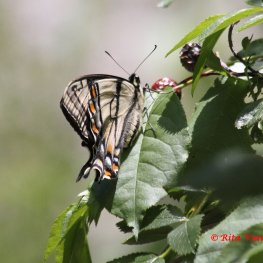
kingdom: Animalia
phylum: Arthropoda
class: Insecta
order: Lepidoptera
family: Papilionidae
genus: Pterourus
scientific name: Pterourus canadensis
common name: Canadian Tiger Swallowtail
